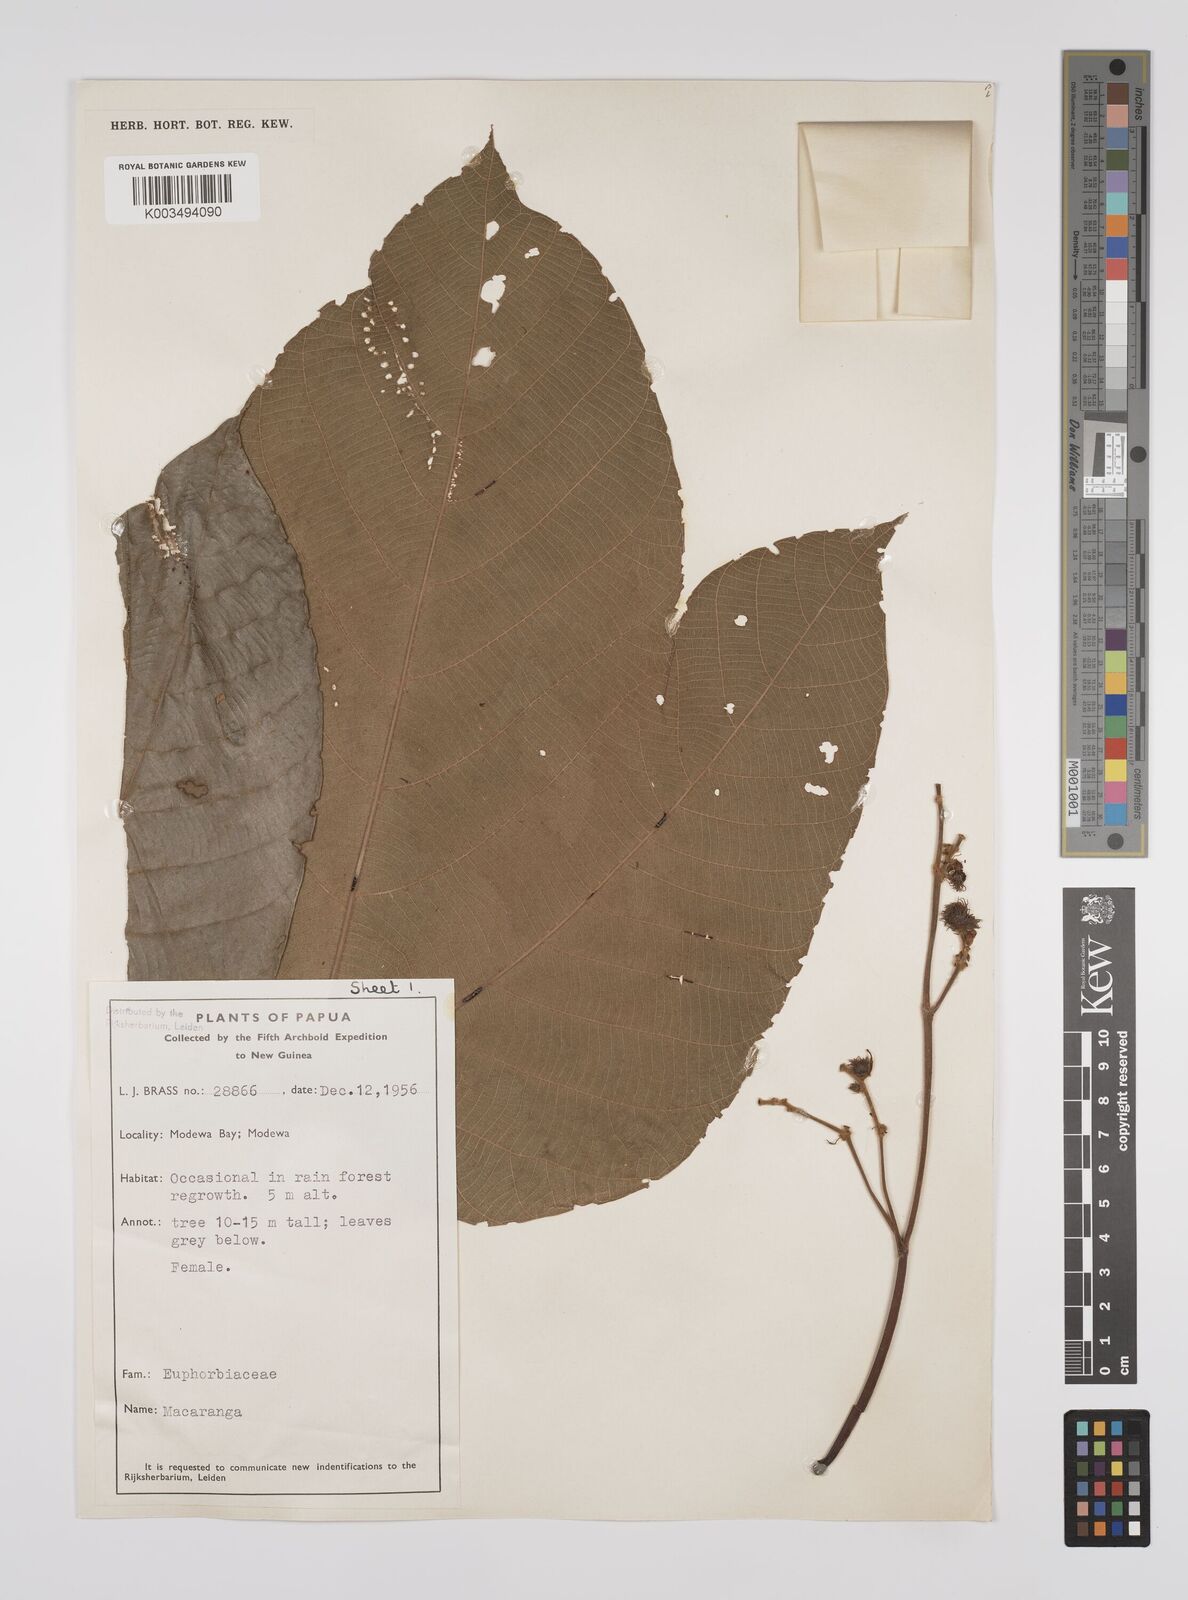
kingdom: Plantae
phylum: Tracheophyta
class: Magnoliopsida
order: Malpighiales
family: Euphorbiaceae
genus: Macaranga
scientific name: Macaranga aleuritoides
